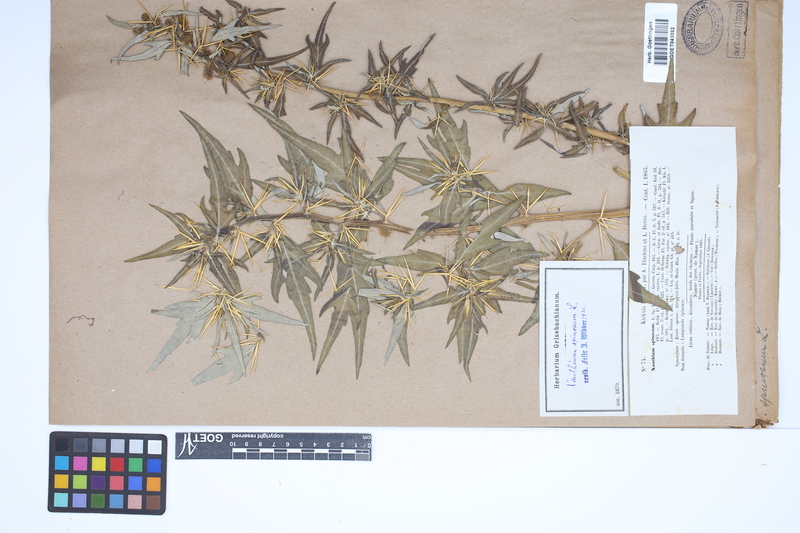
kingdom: Plantae
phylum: Tracheophyta
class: Magnoliopsida
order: Asterales
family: Asteraceae
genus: Xanthium
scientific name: Xanthium spinosum
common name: Spiny cocklebur
